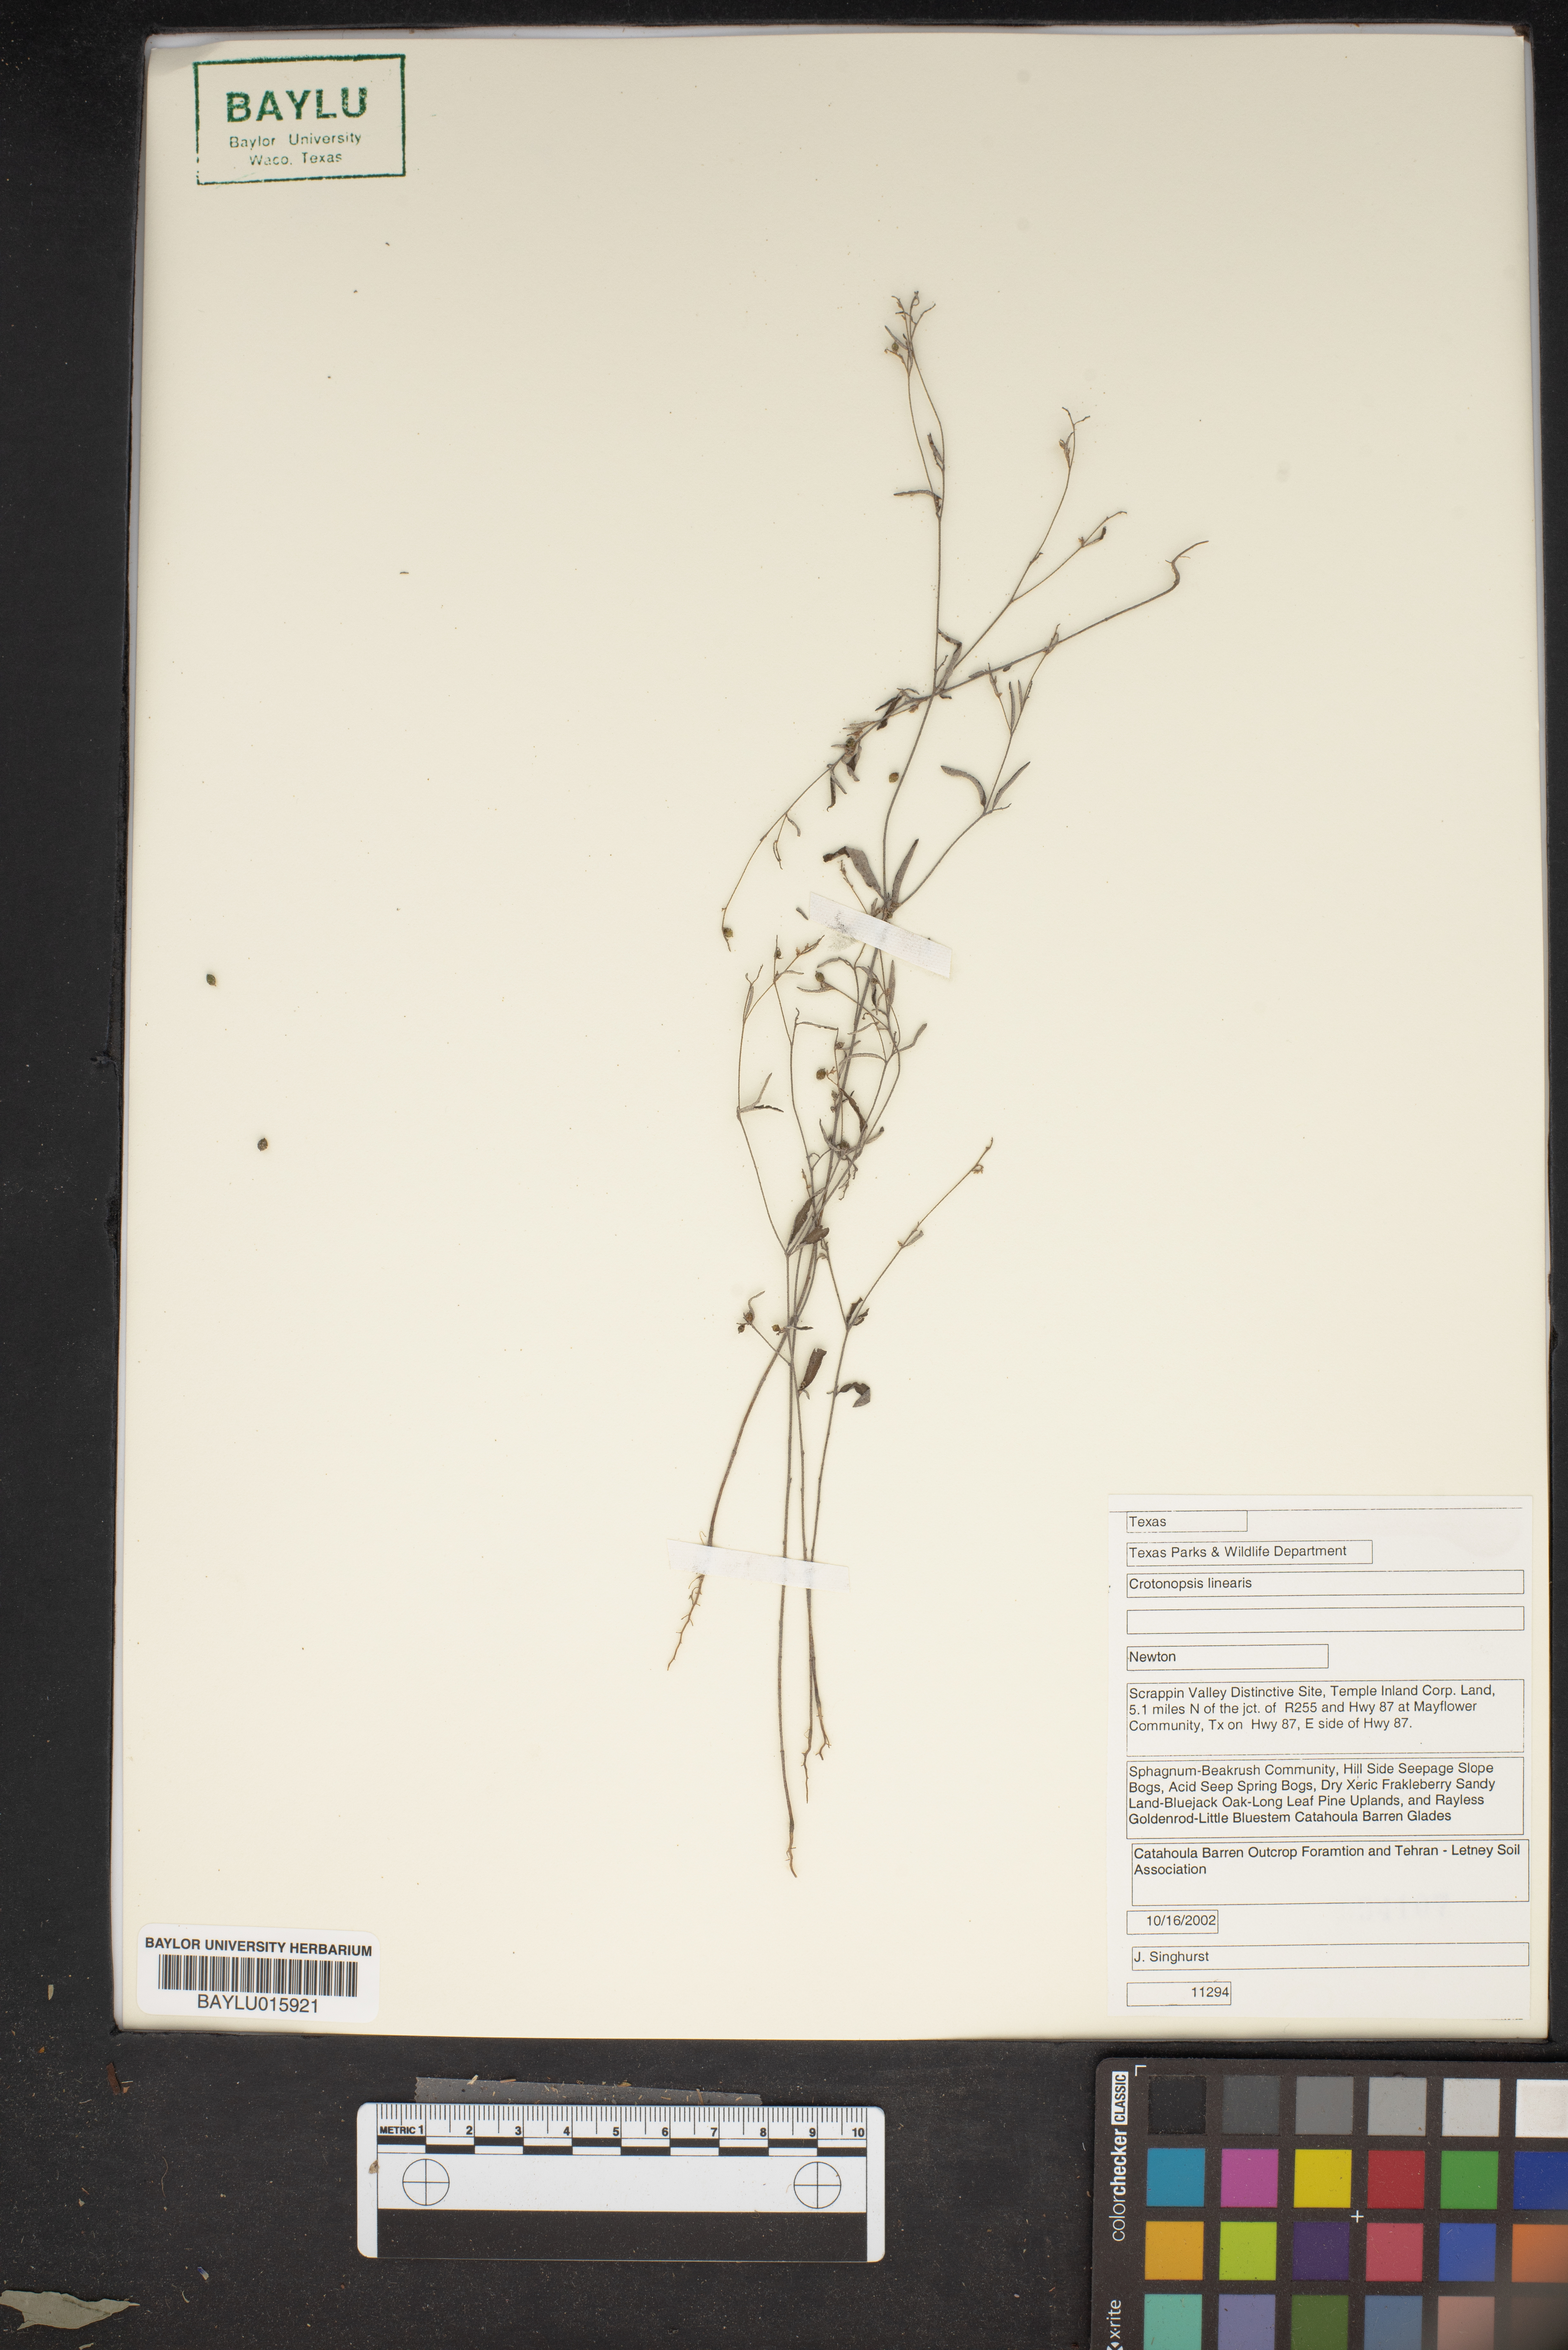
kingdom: Plantae
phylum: Tracheophyta
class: Magnoliopsida
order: Malpighiales
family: Euphorbiaceae
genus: Croton
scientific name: Croton michauxii
